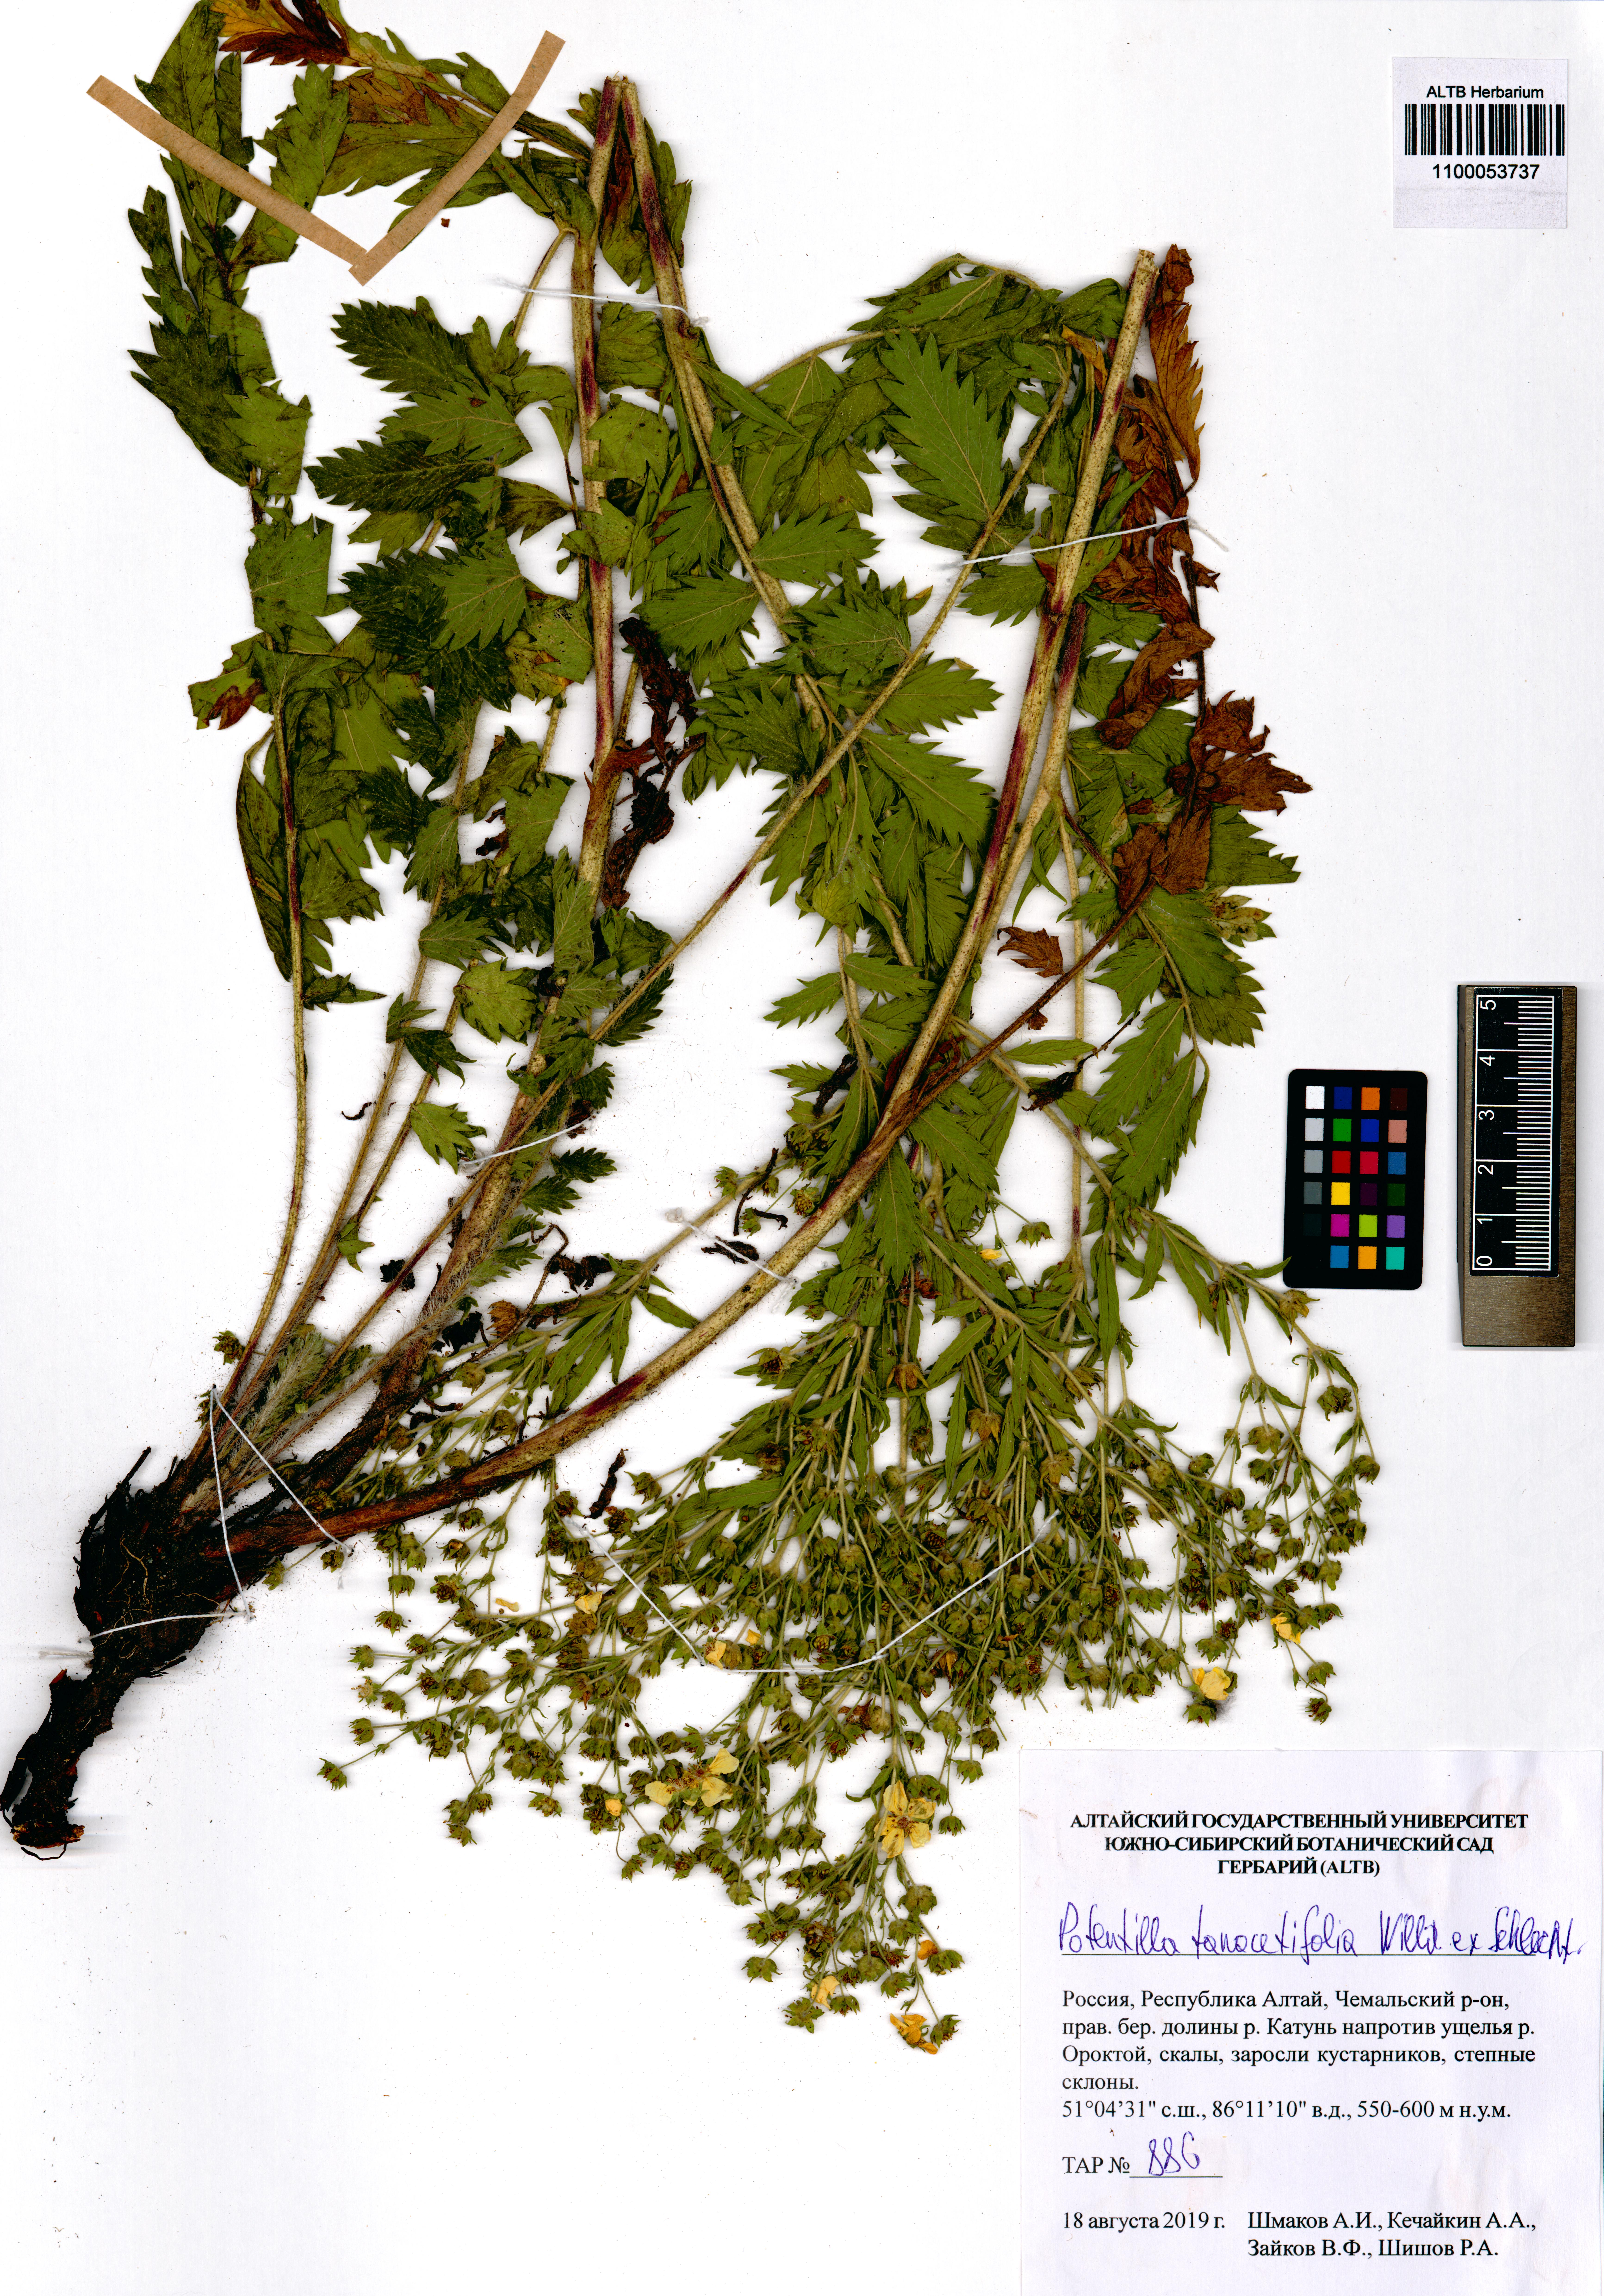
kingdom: Plantae
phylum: Tracheophyta
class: Magnoliopsida
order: Rosales
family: Rosaceae
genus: Potentilla
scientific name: Potentilla tanacetifolia
